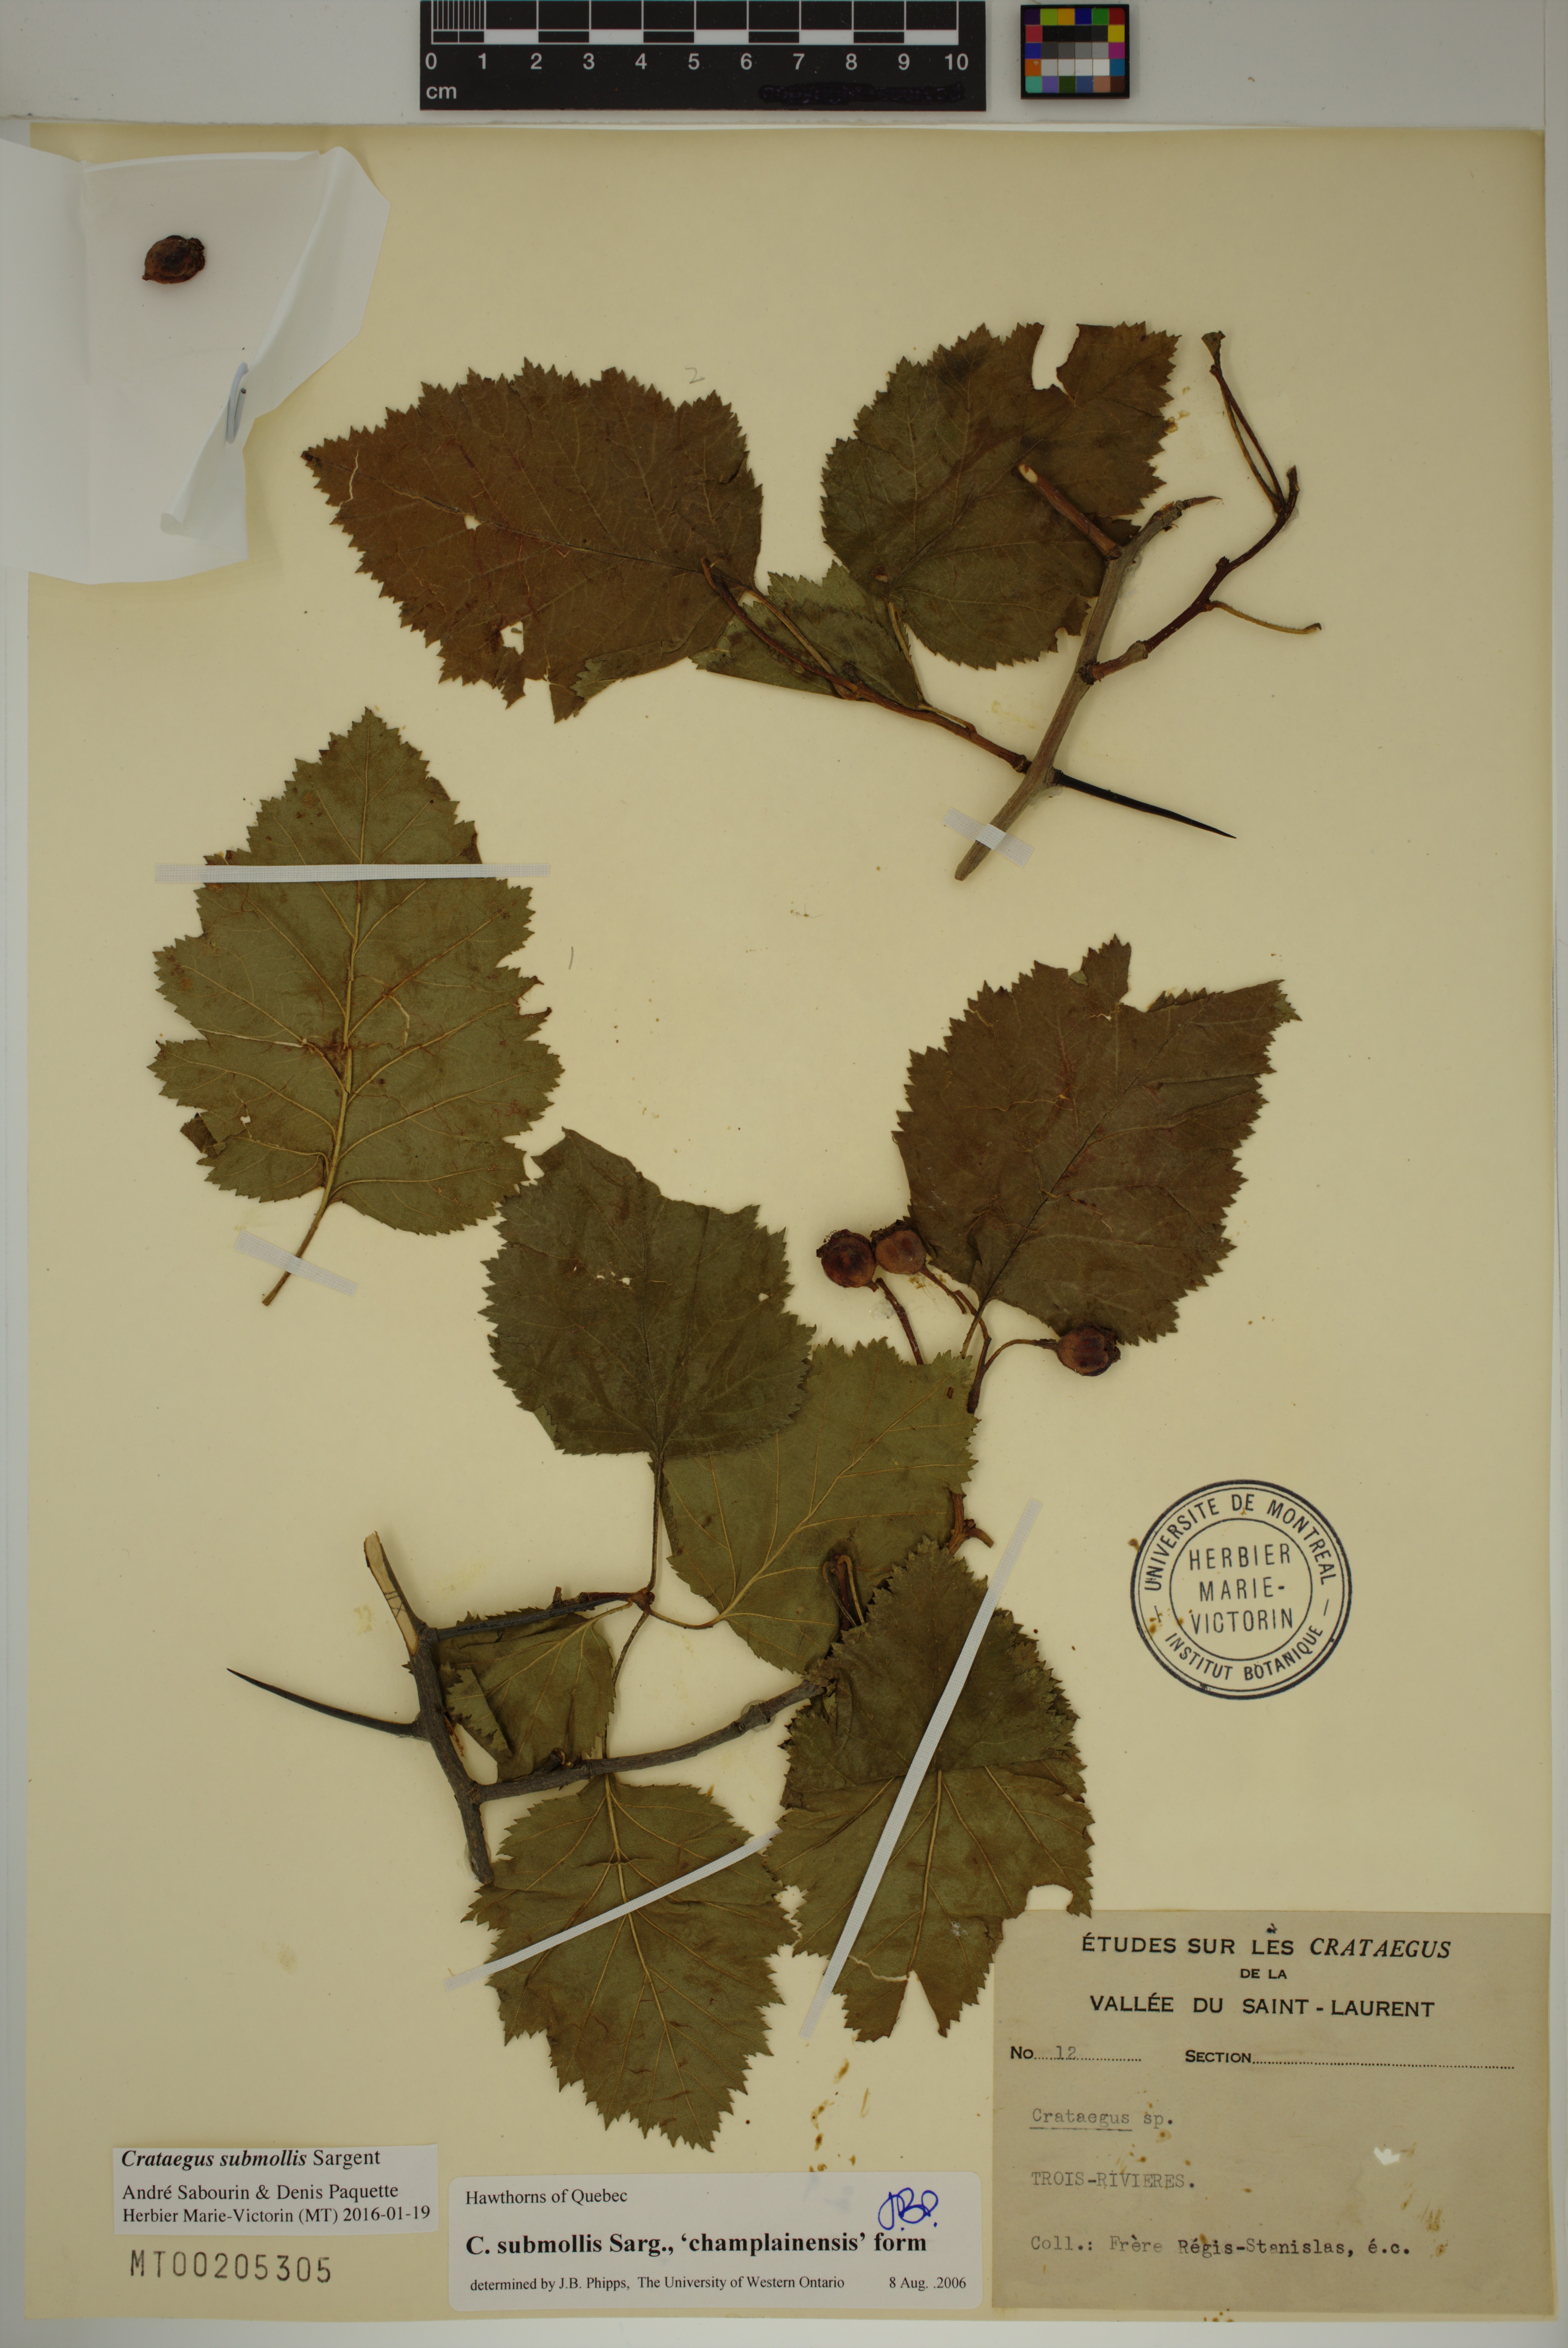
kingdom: Plantae
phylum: Tracheophyta
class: Magnoliopsida
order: Rosales
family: Rosaceae
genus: Crataegus
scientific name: Crataegus submollis
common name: Hairy cockspurthorn
